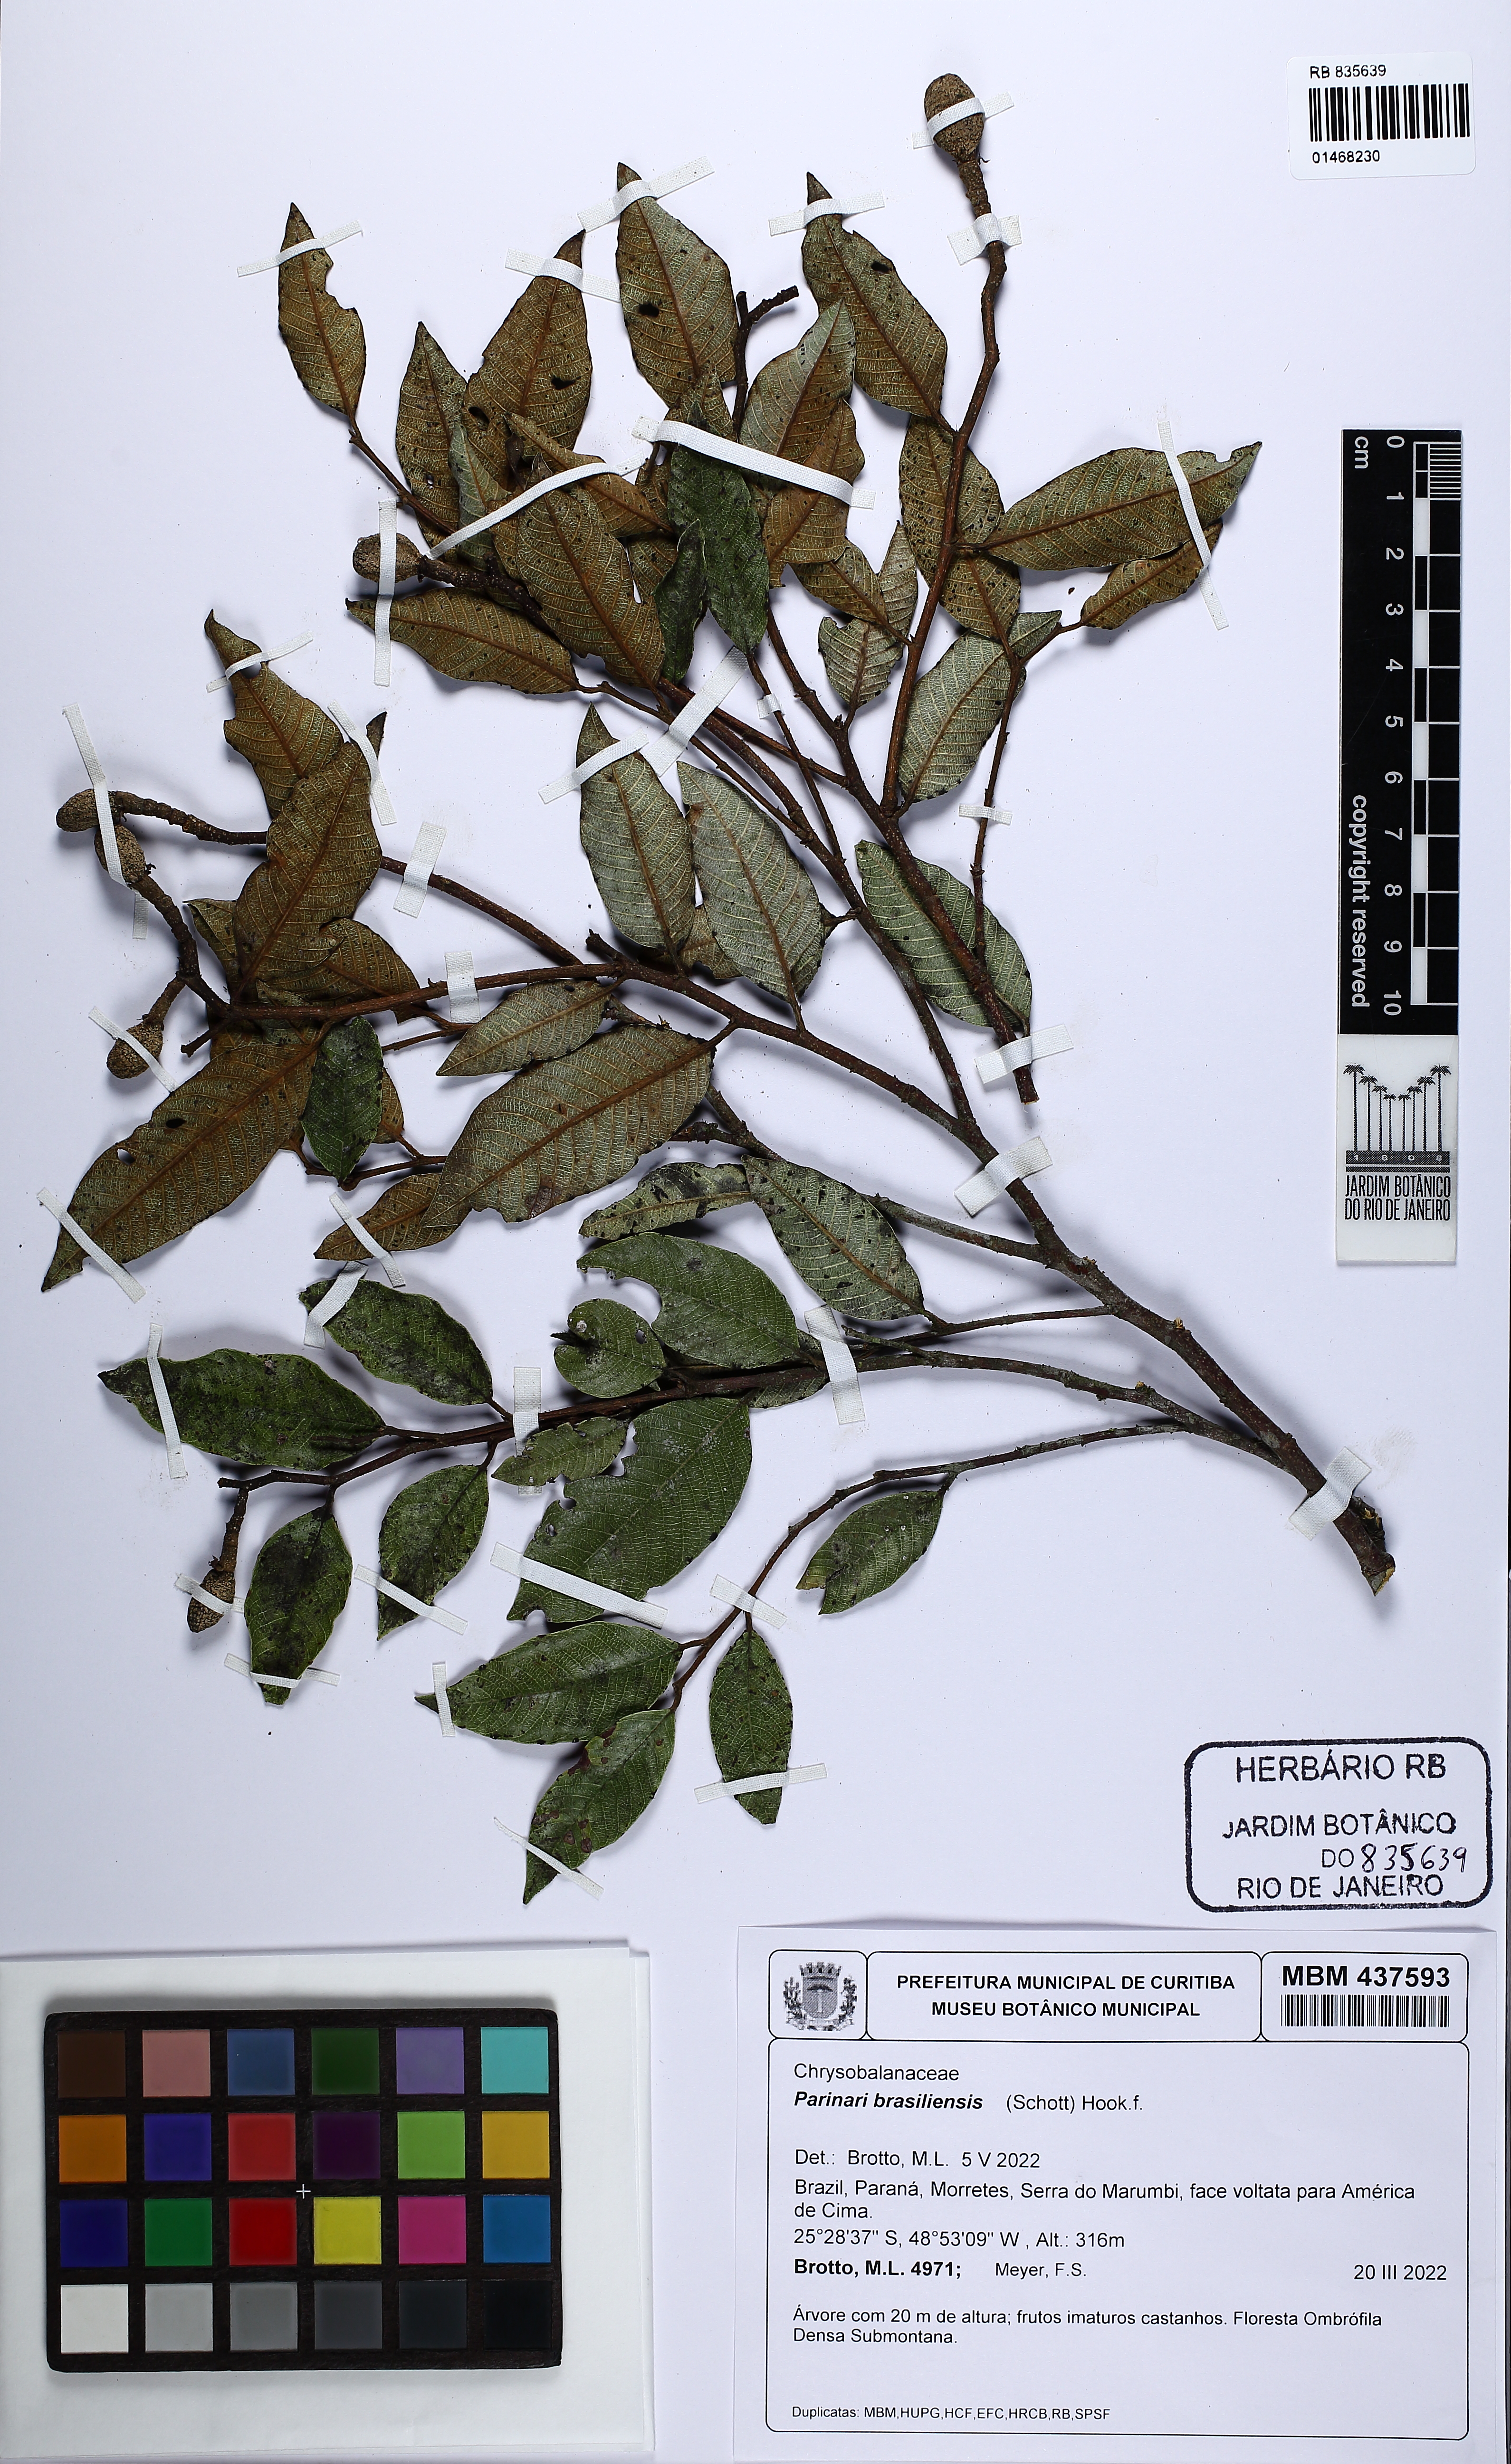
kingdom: Plantae
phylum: Tracheophyta
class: Magnoliopsida
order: Malpighiales
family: Chrysobalanaceae
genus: Parinari
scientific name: Parinari brasiliensis
